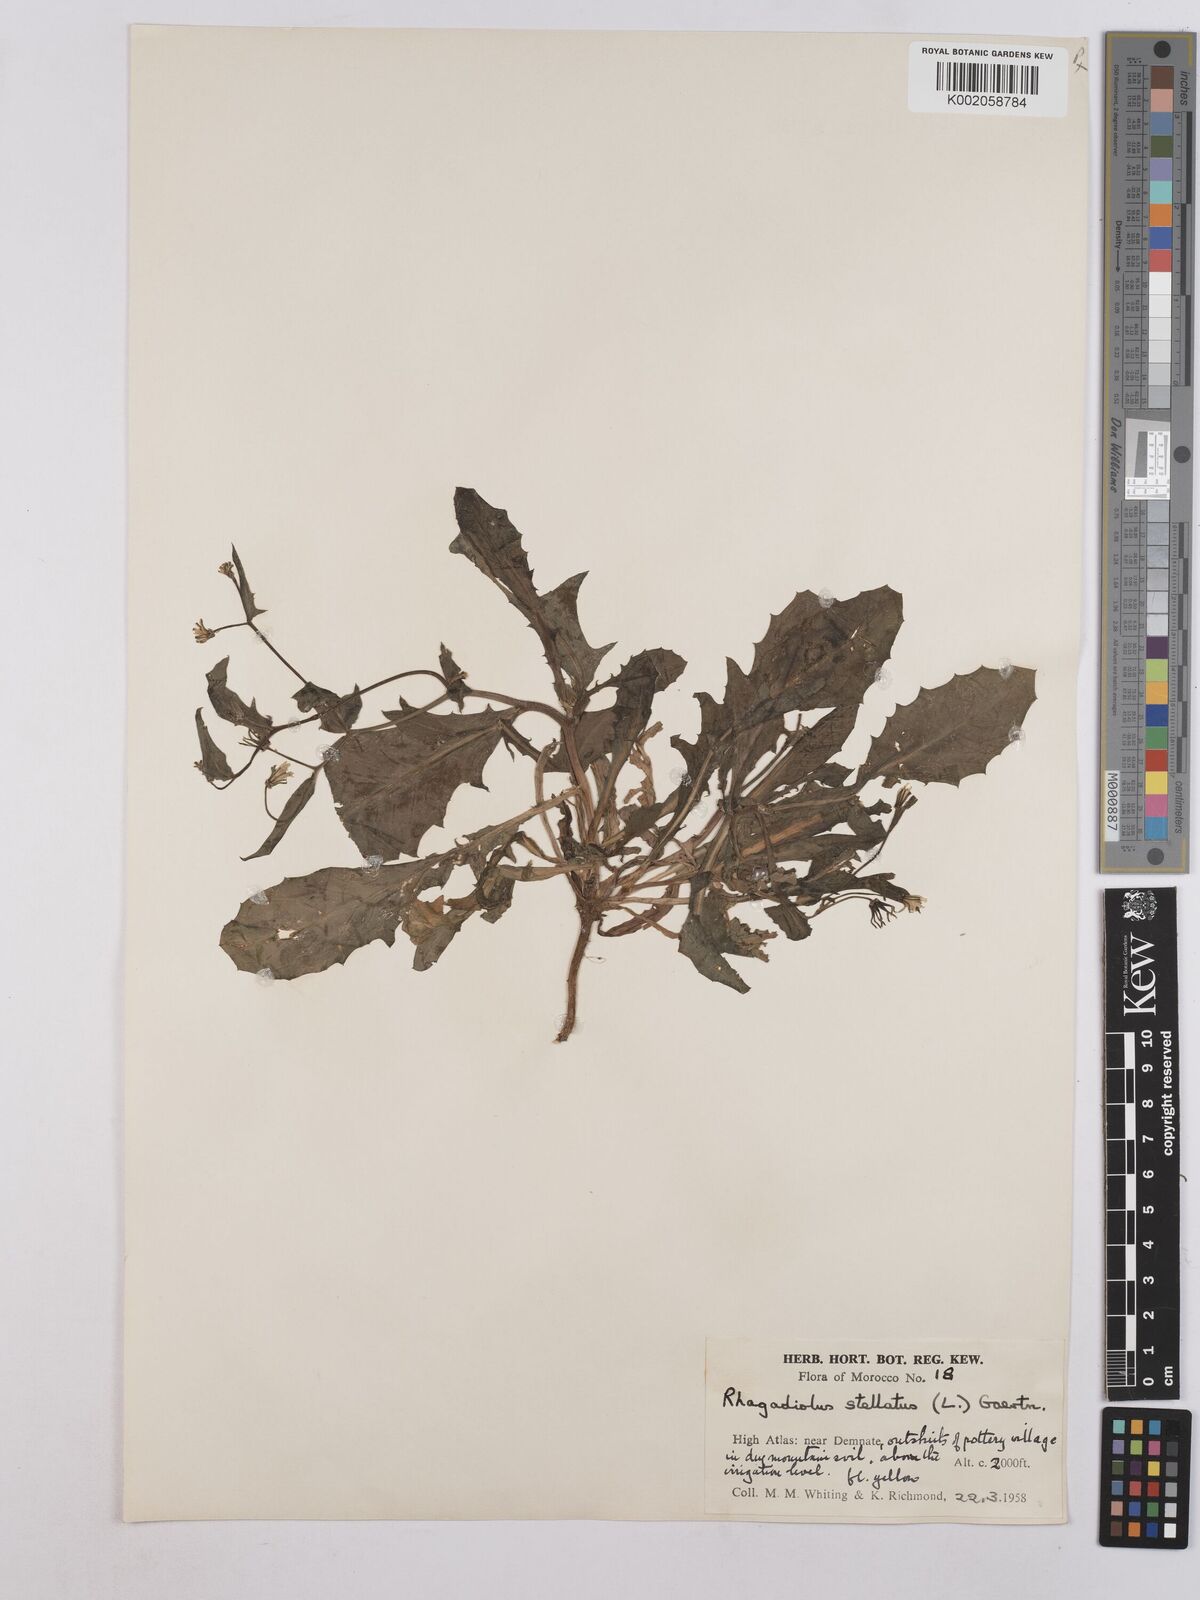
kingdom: Plantae
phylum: Tracheophyta
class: Magnoliopsida
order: Asterales
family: Asteraceae
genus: Rhagadiolus
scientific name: Rhagadiolus stellatus
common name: Star hawkbit
